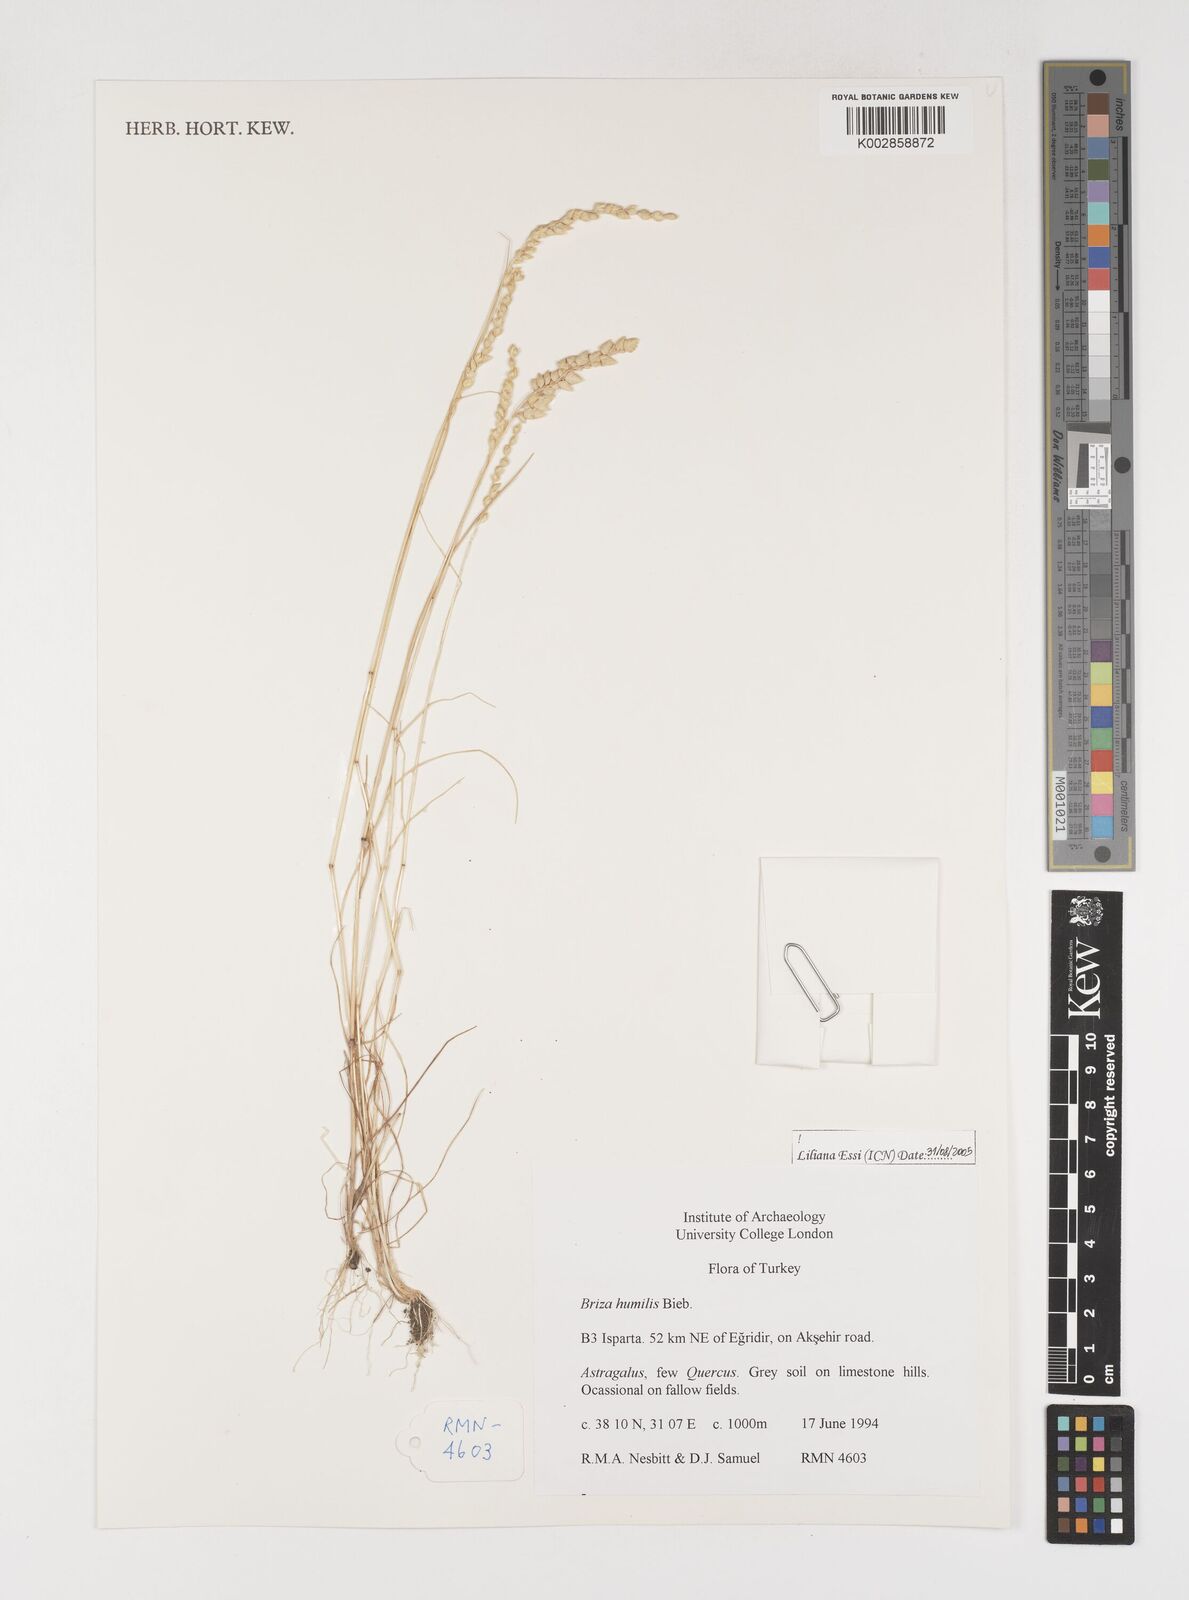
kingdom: Plantae
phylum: Tracheophyta
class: Liliopsida
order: Poales
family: Poaceae
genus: Briza
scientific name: Briza humilis
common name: Spiked quaking grass
